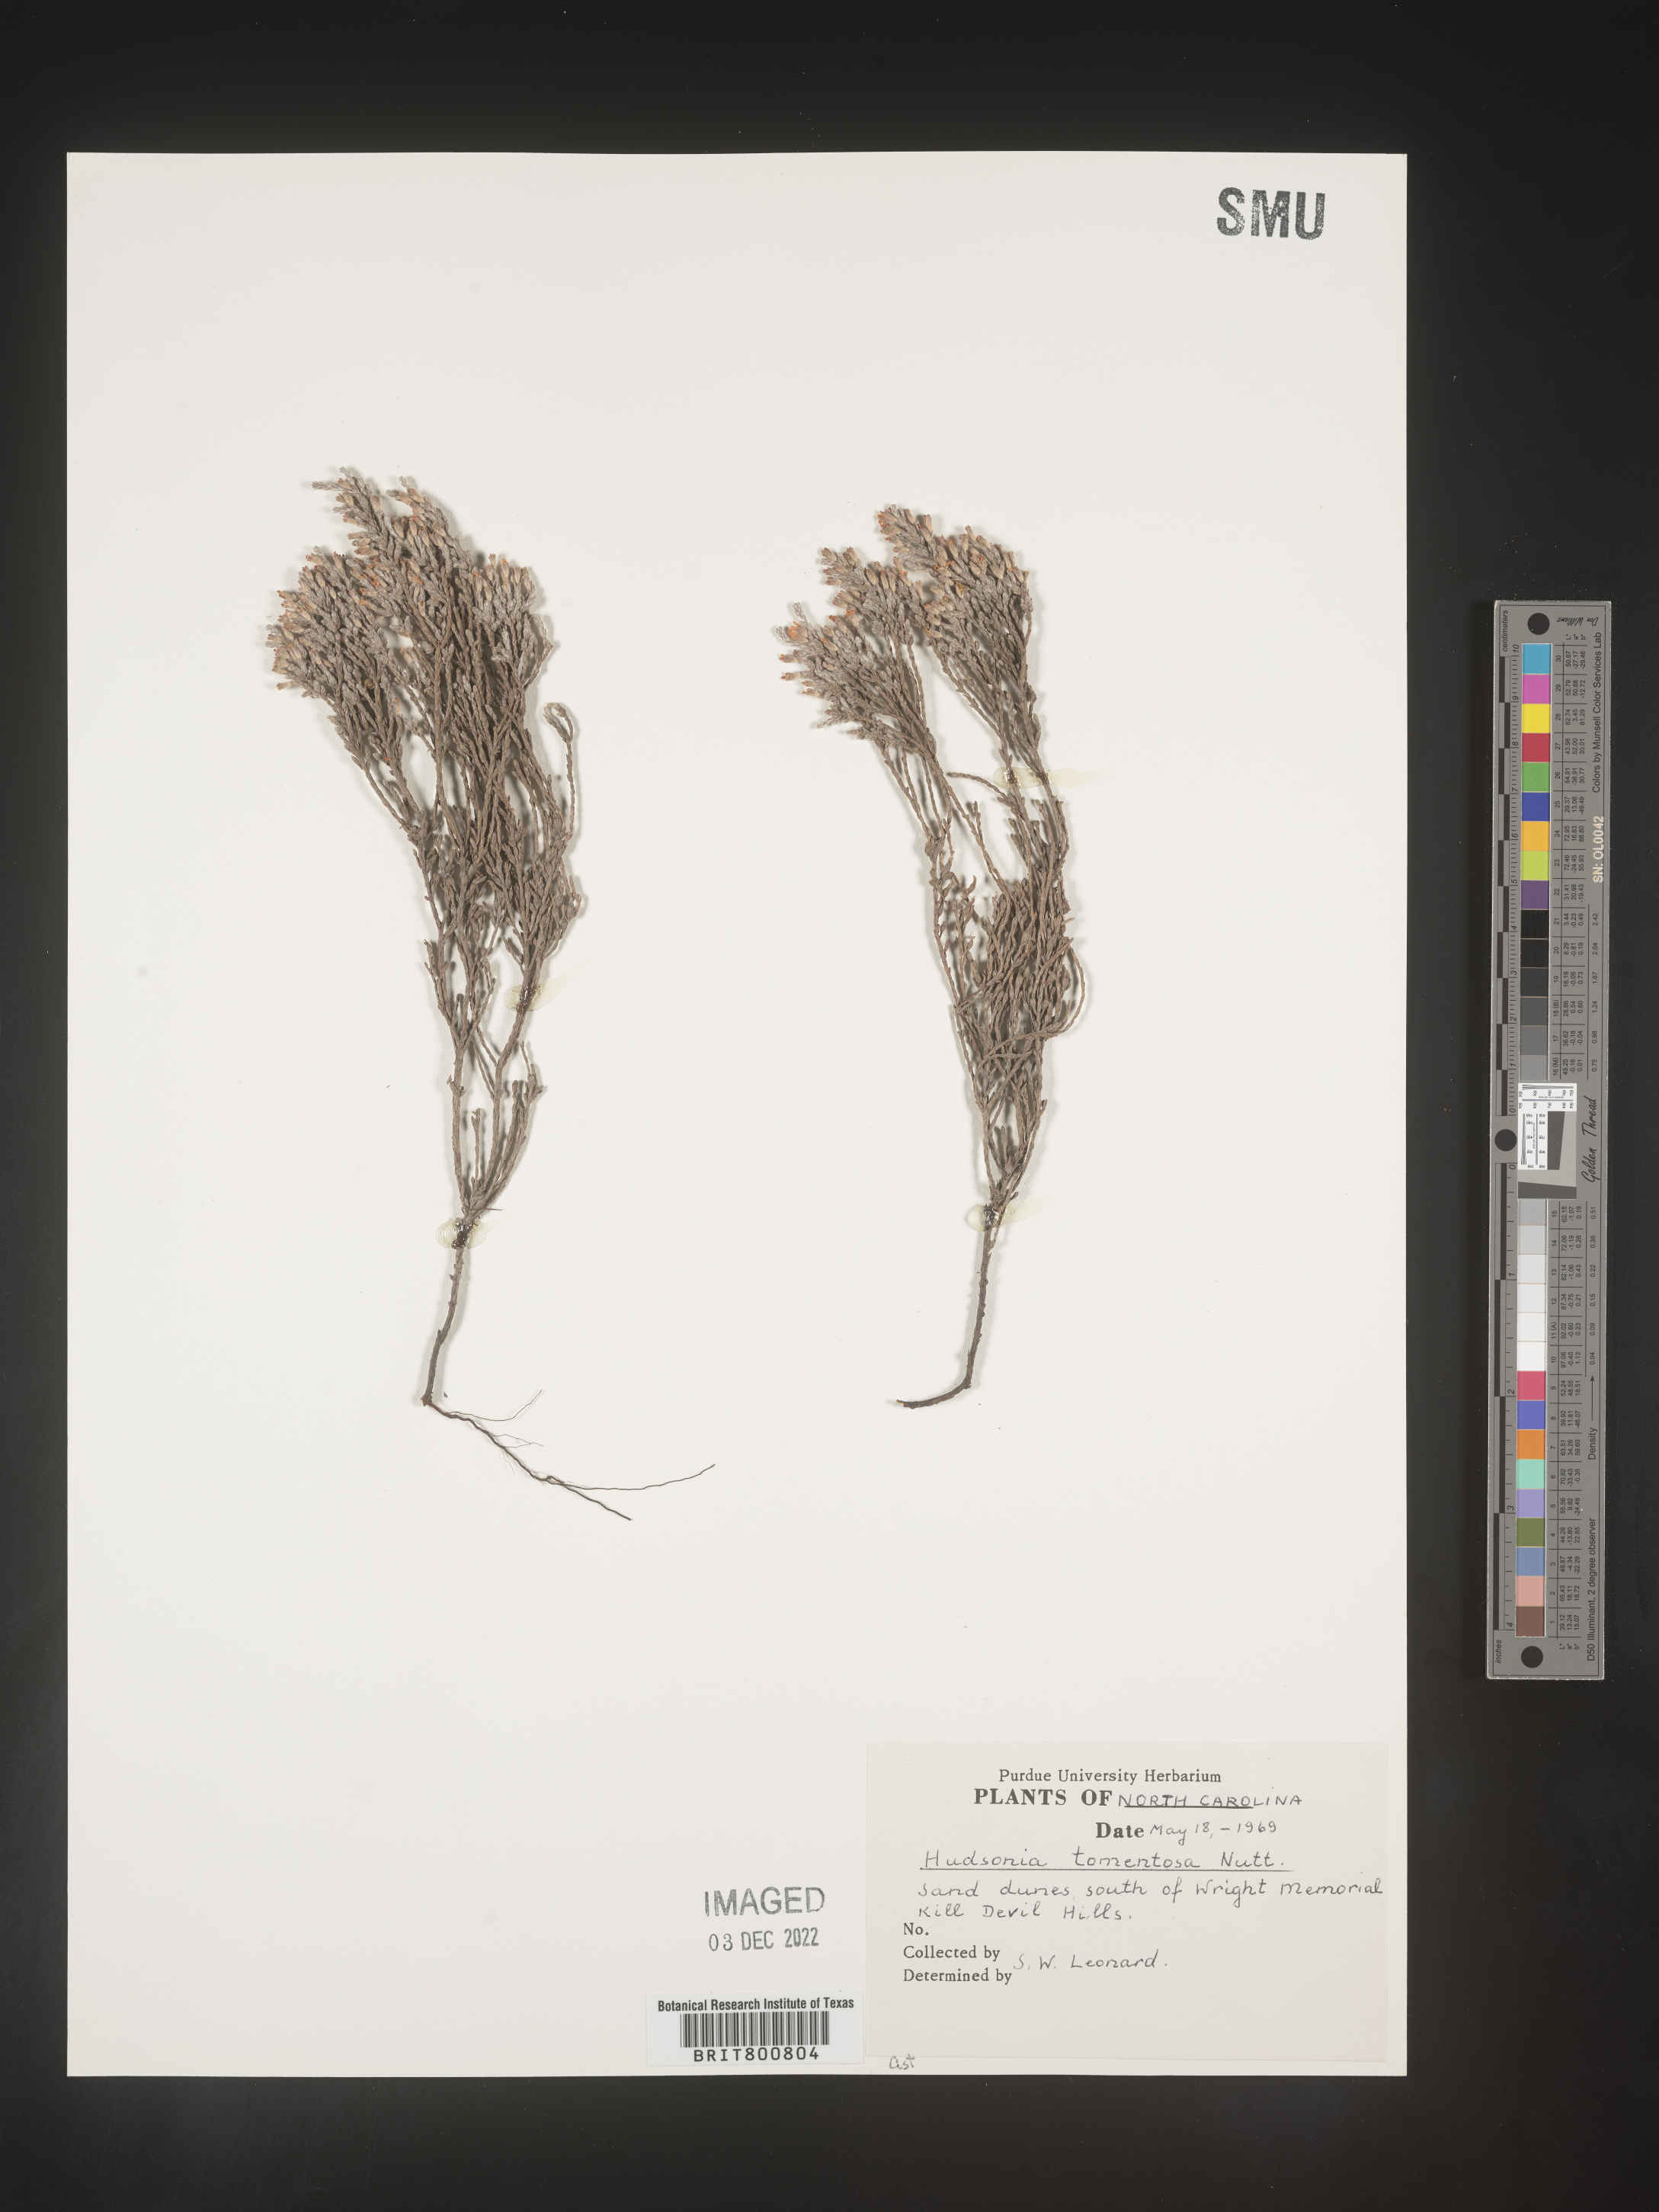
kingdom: Plantae
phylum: Tracheophyta
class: Magnoliopsida
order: Malvales
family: Cistaceae
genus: Hudsonia
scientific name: Hudsonia tomentosa
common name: Beach-heath
